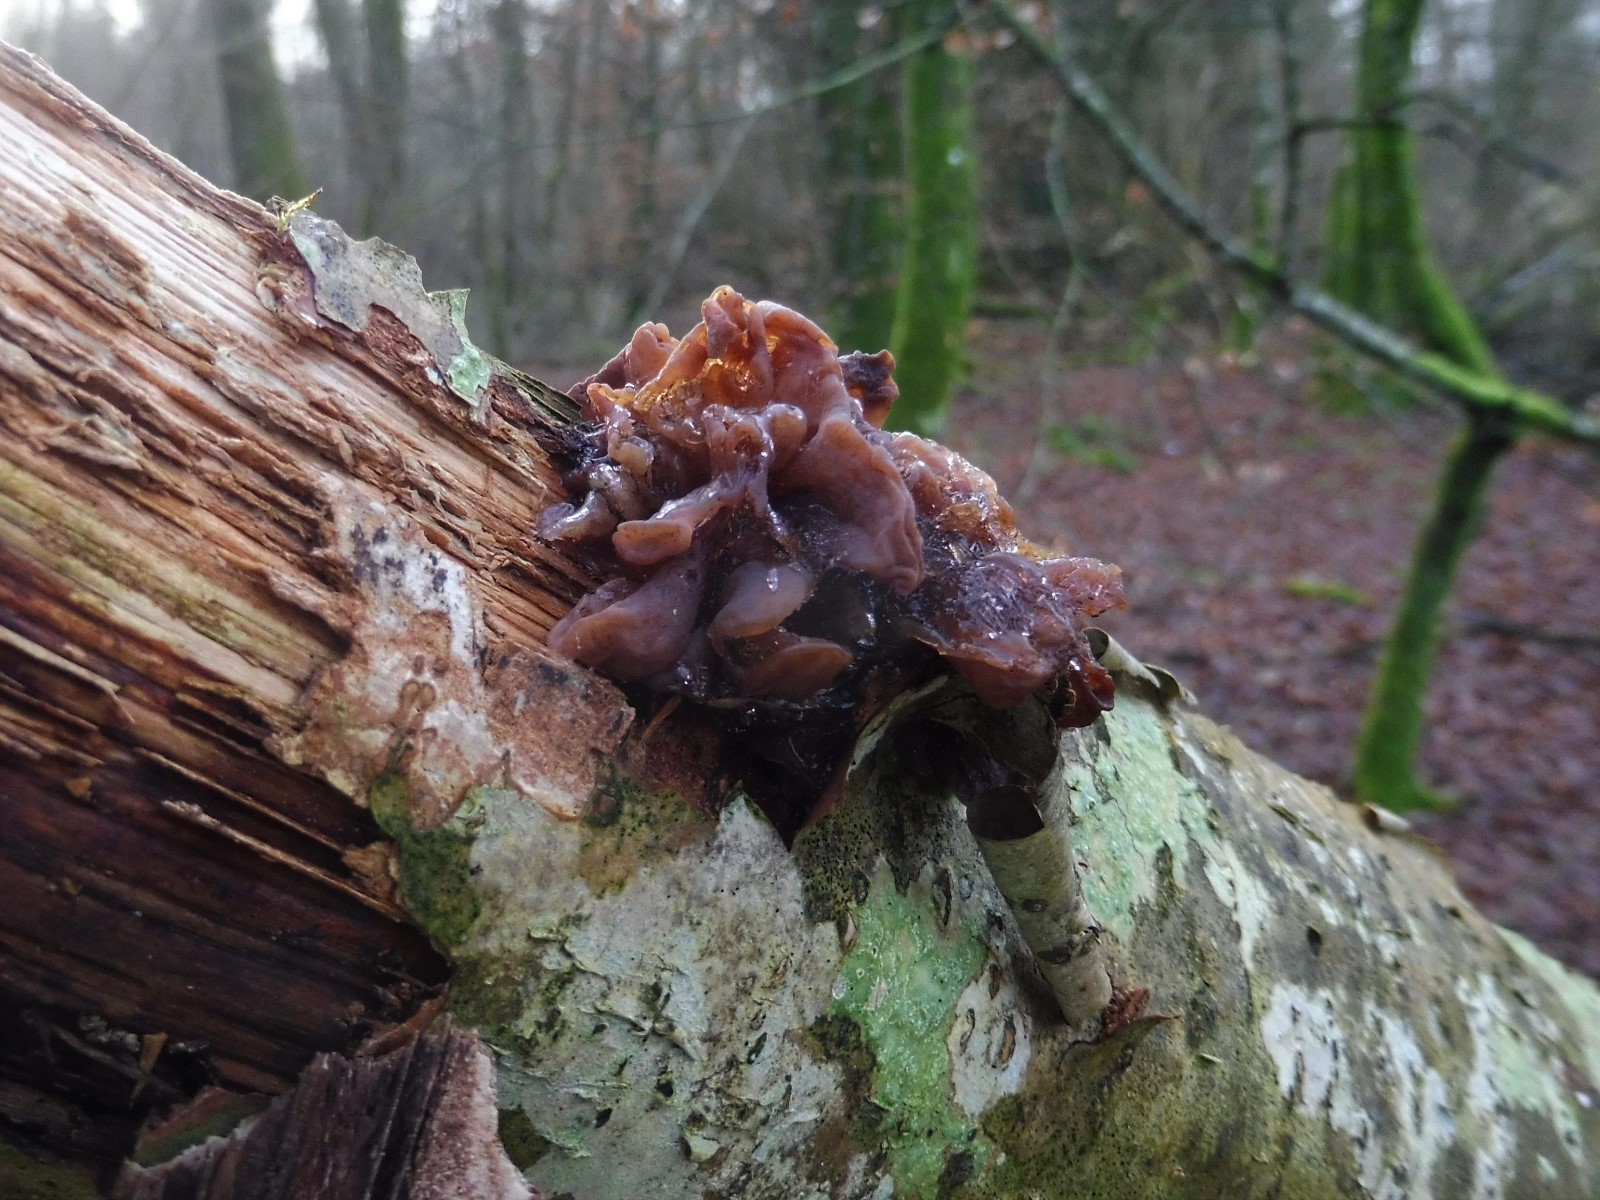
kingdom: Fungi
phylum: Basidiomycota
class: Tremellomycetes
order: Tremellales
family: Tremellaceae
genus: Phaeotremella
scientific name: Phaeotremella frondosa
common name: kæmpe-bævresvamp
